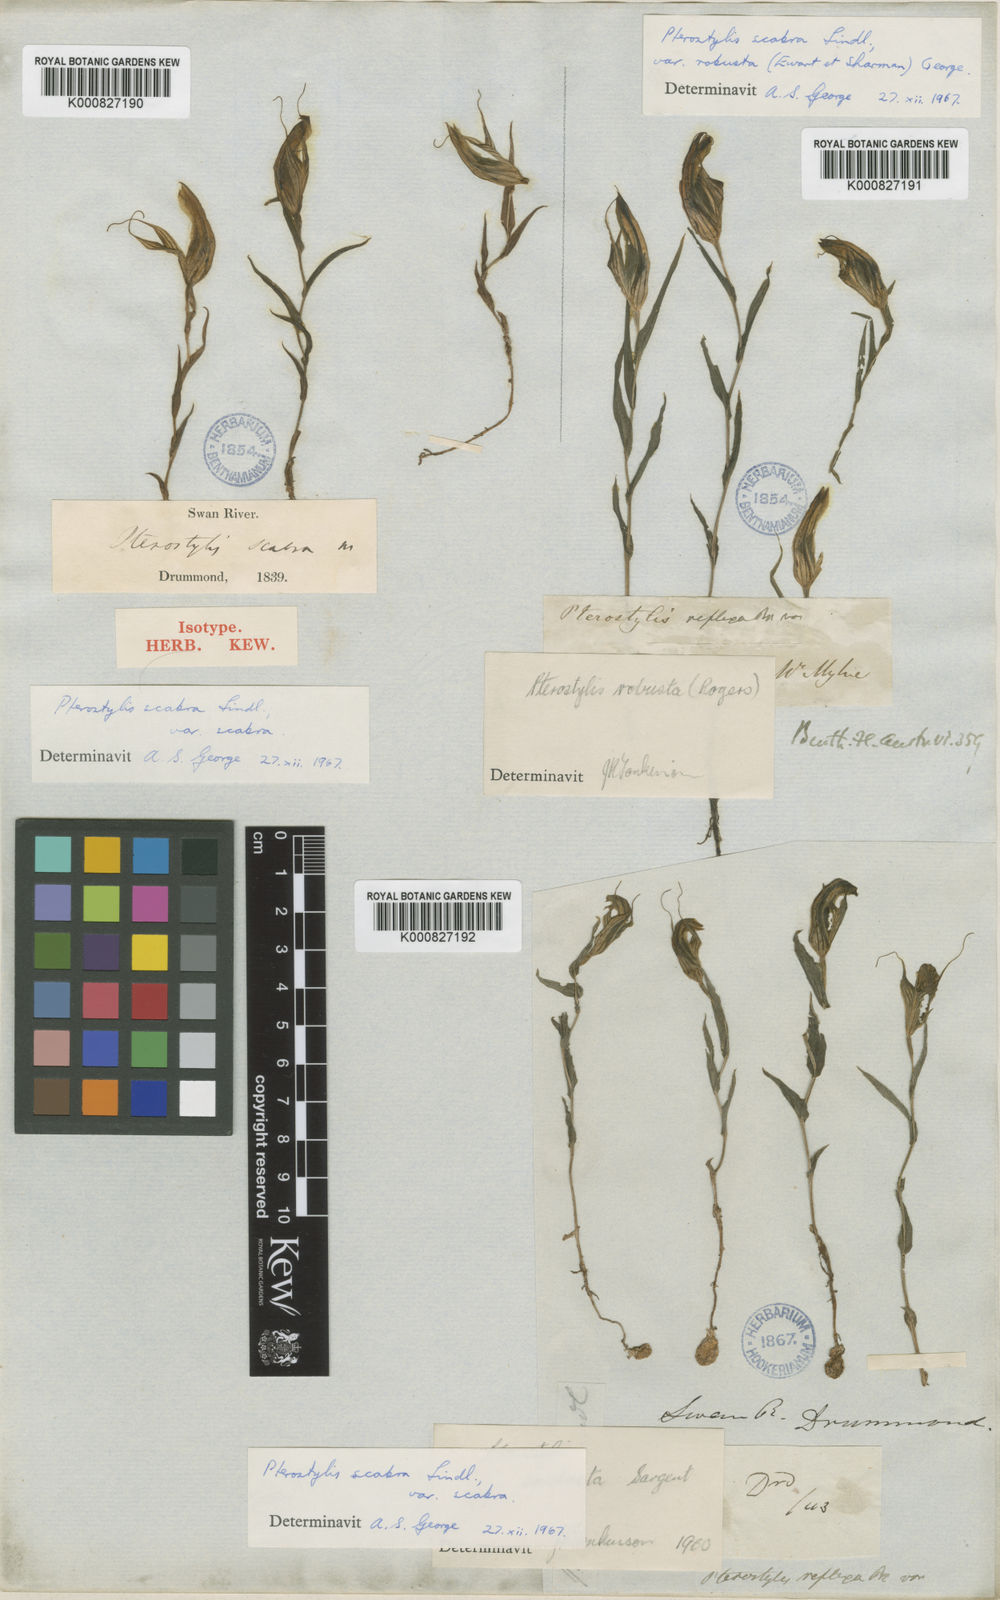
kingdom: Plantae
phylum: Tracheophyta
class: Liliopsida
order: Asparagales
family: Orchidaceae
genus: Pterostylis
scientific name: Pterostylis scabra
